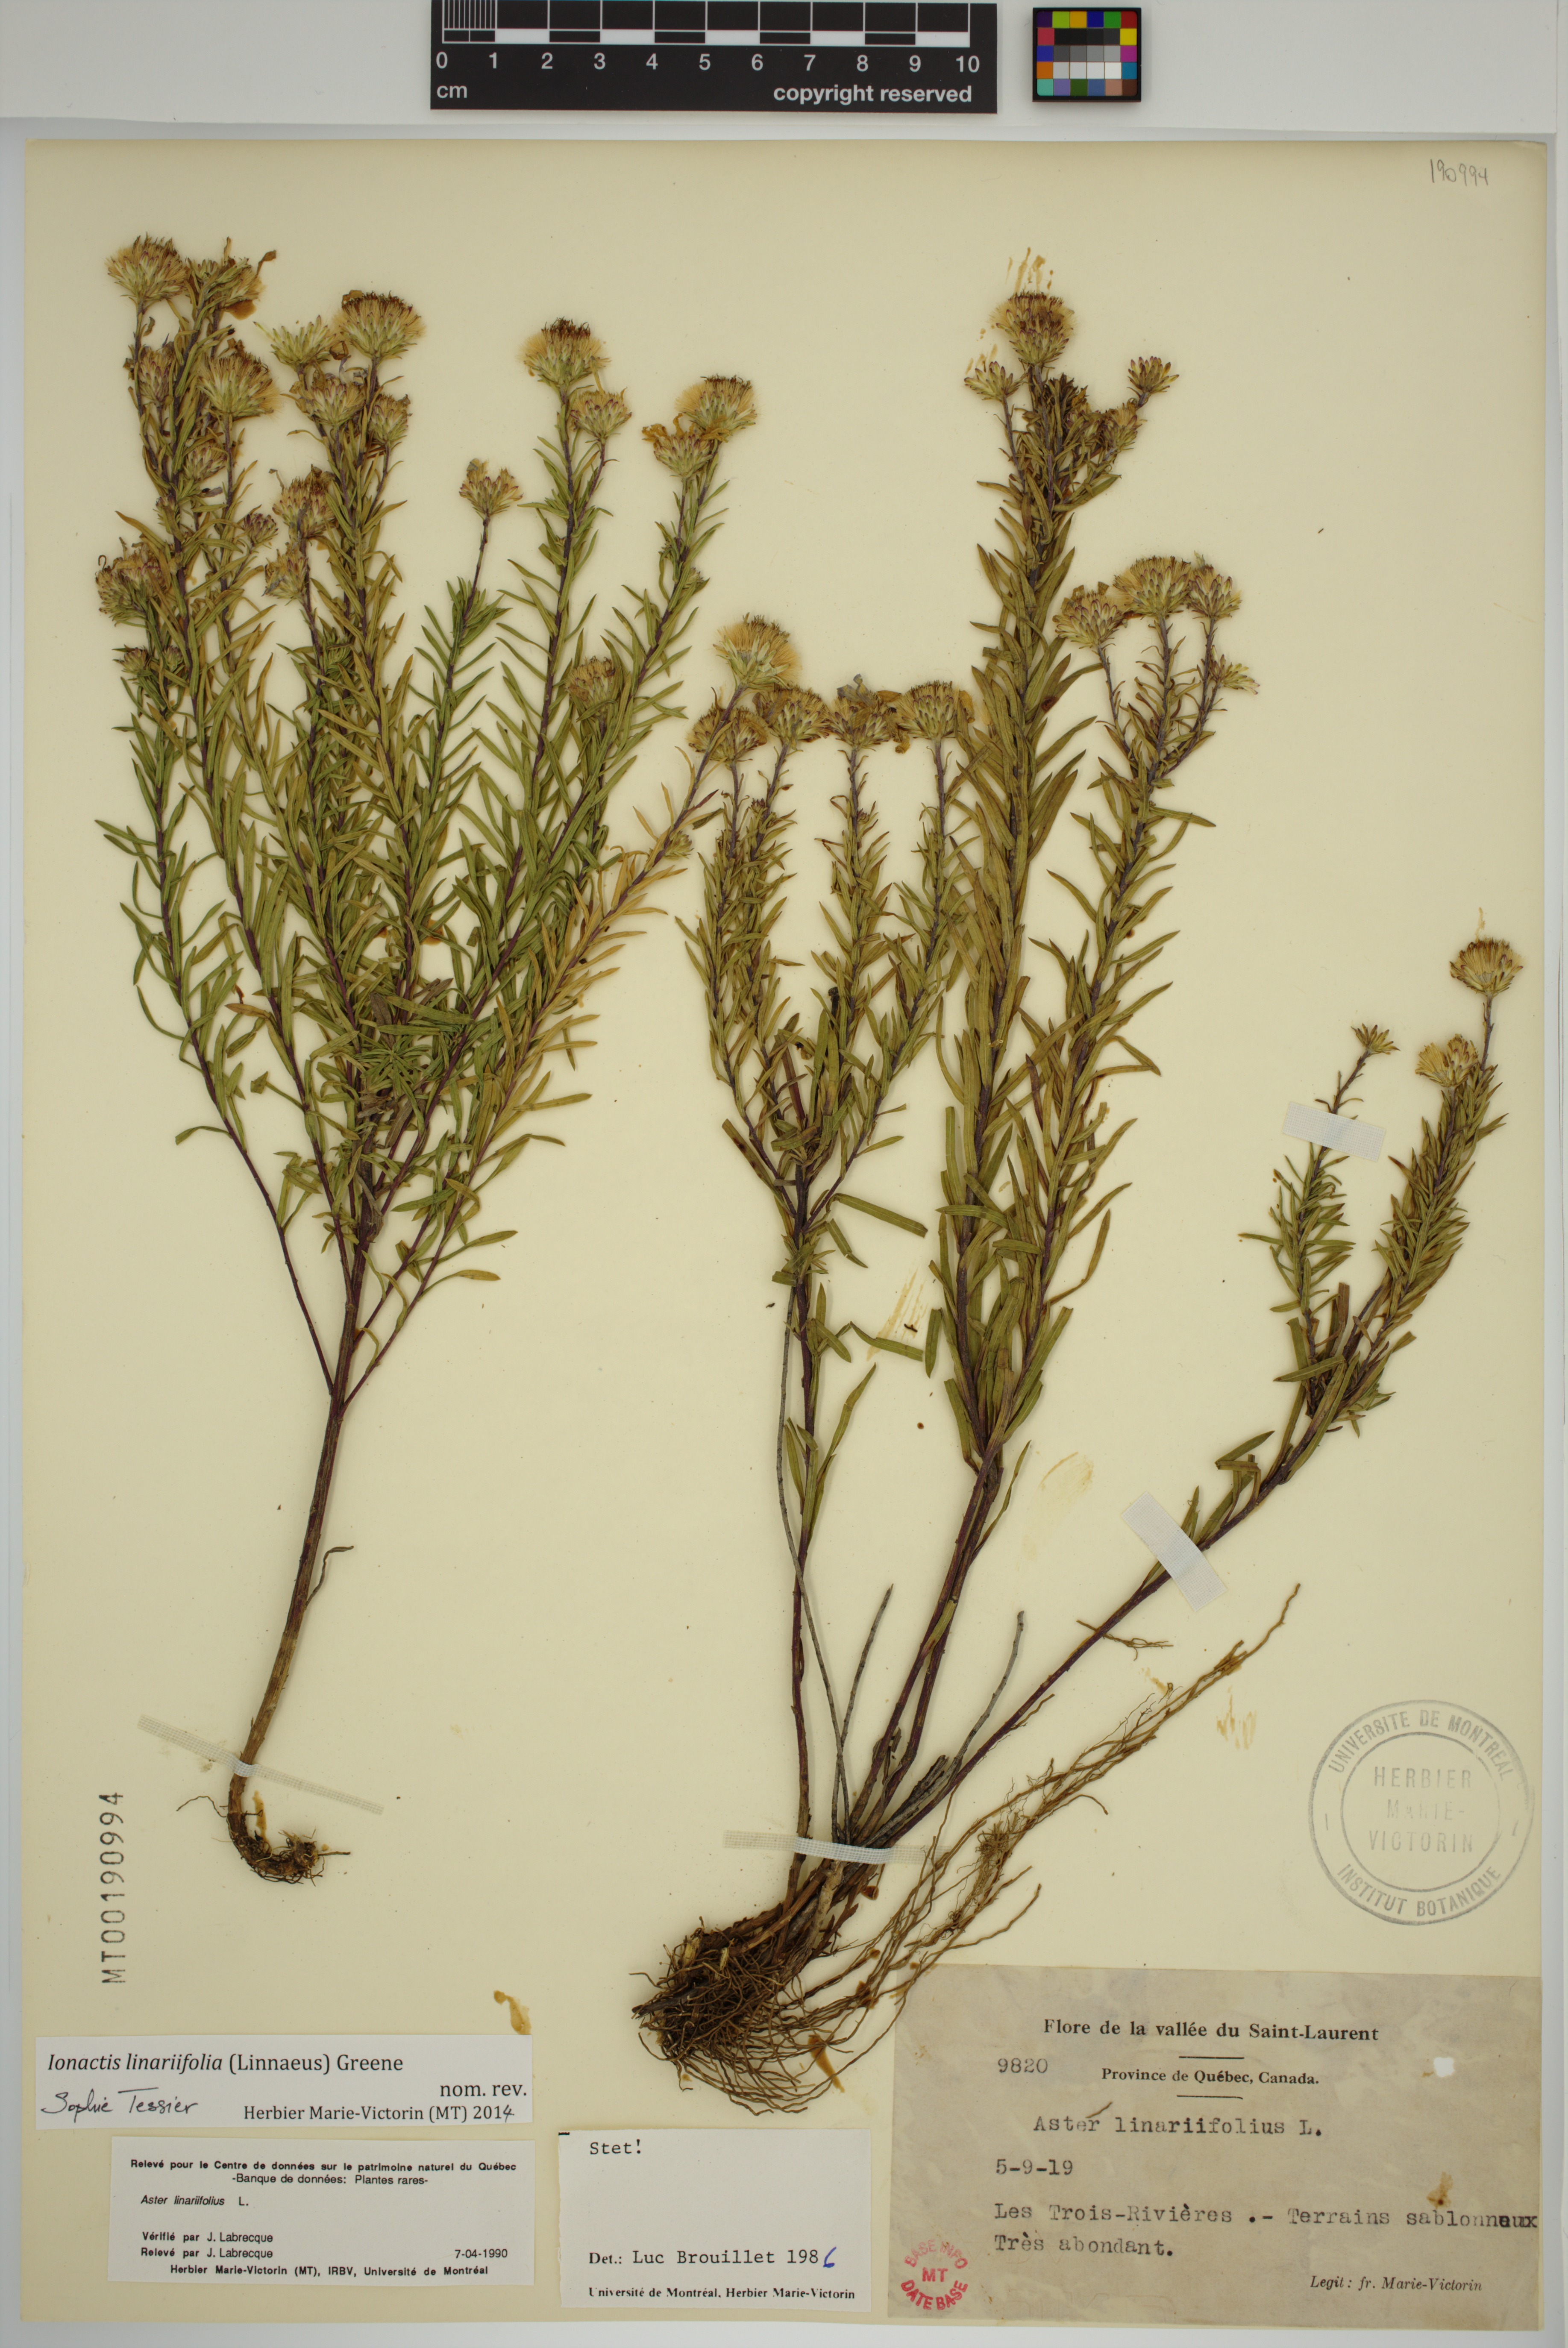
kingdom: Plantae
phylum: Tracheophyta
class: Magnoliopsida
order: Asterales
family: Asteraceae
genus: Ionactis
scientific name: Ionactis linariifolia
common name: Flax-leaf aster
